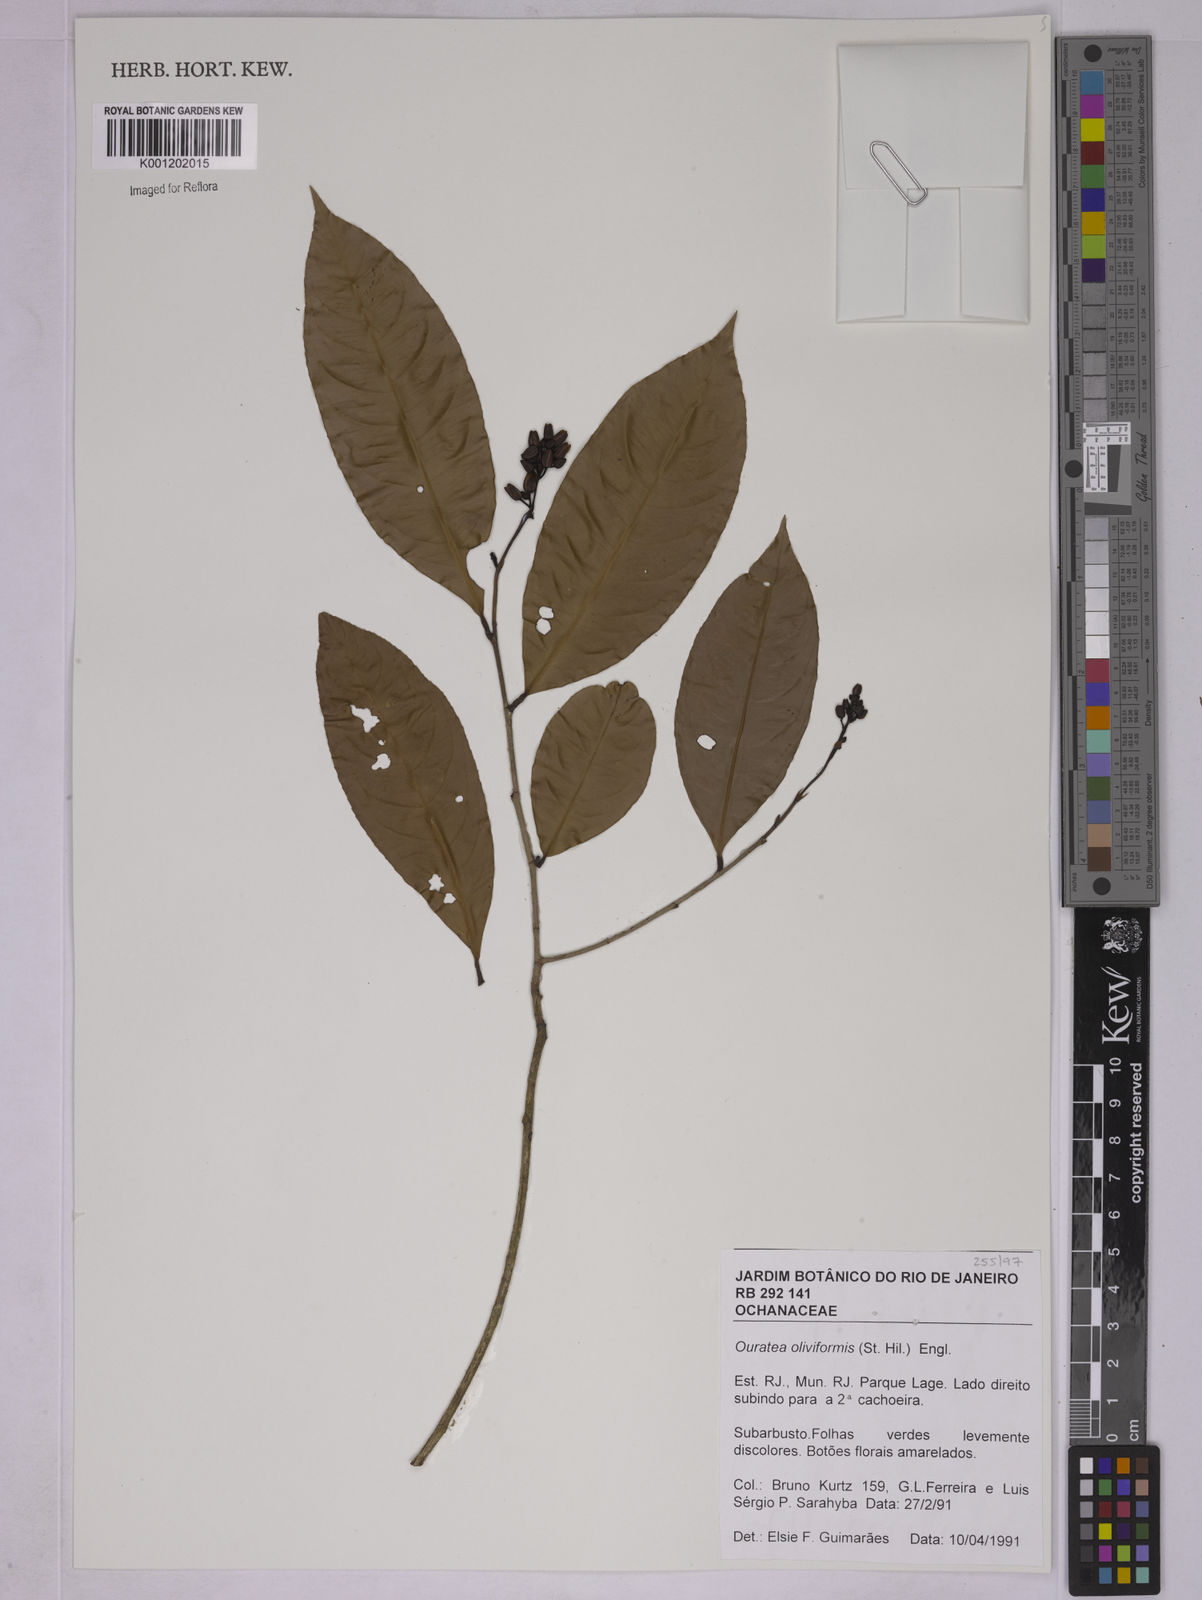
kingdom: Plantae
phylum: Tracheophyta
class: Magnoliopsida
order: Malpighiales
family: Ochnaceae
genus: Ouratea
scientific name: Ouratea oliviformis
